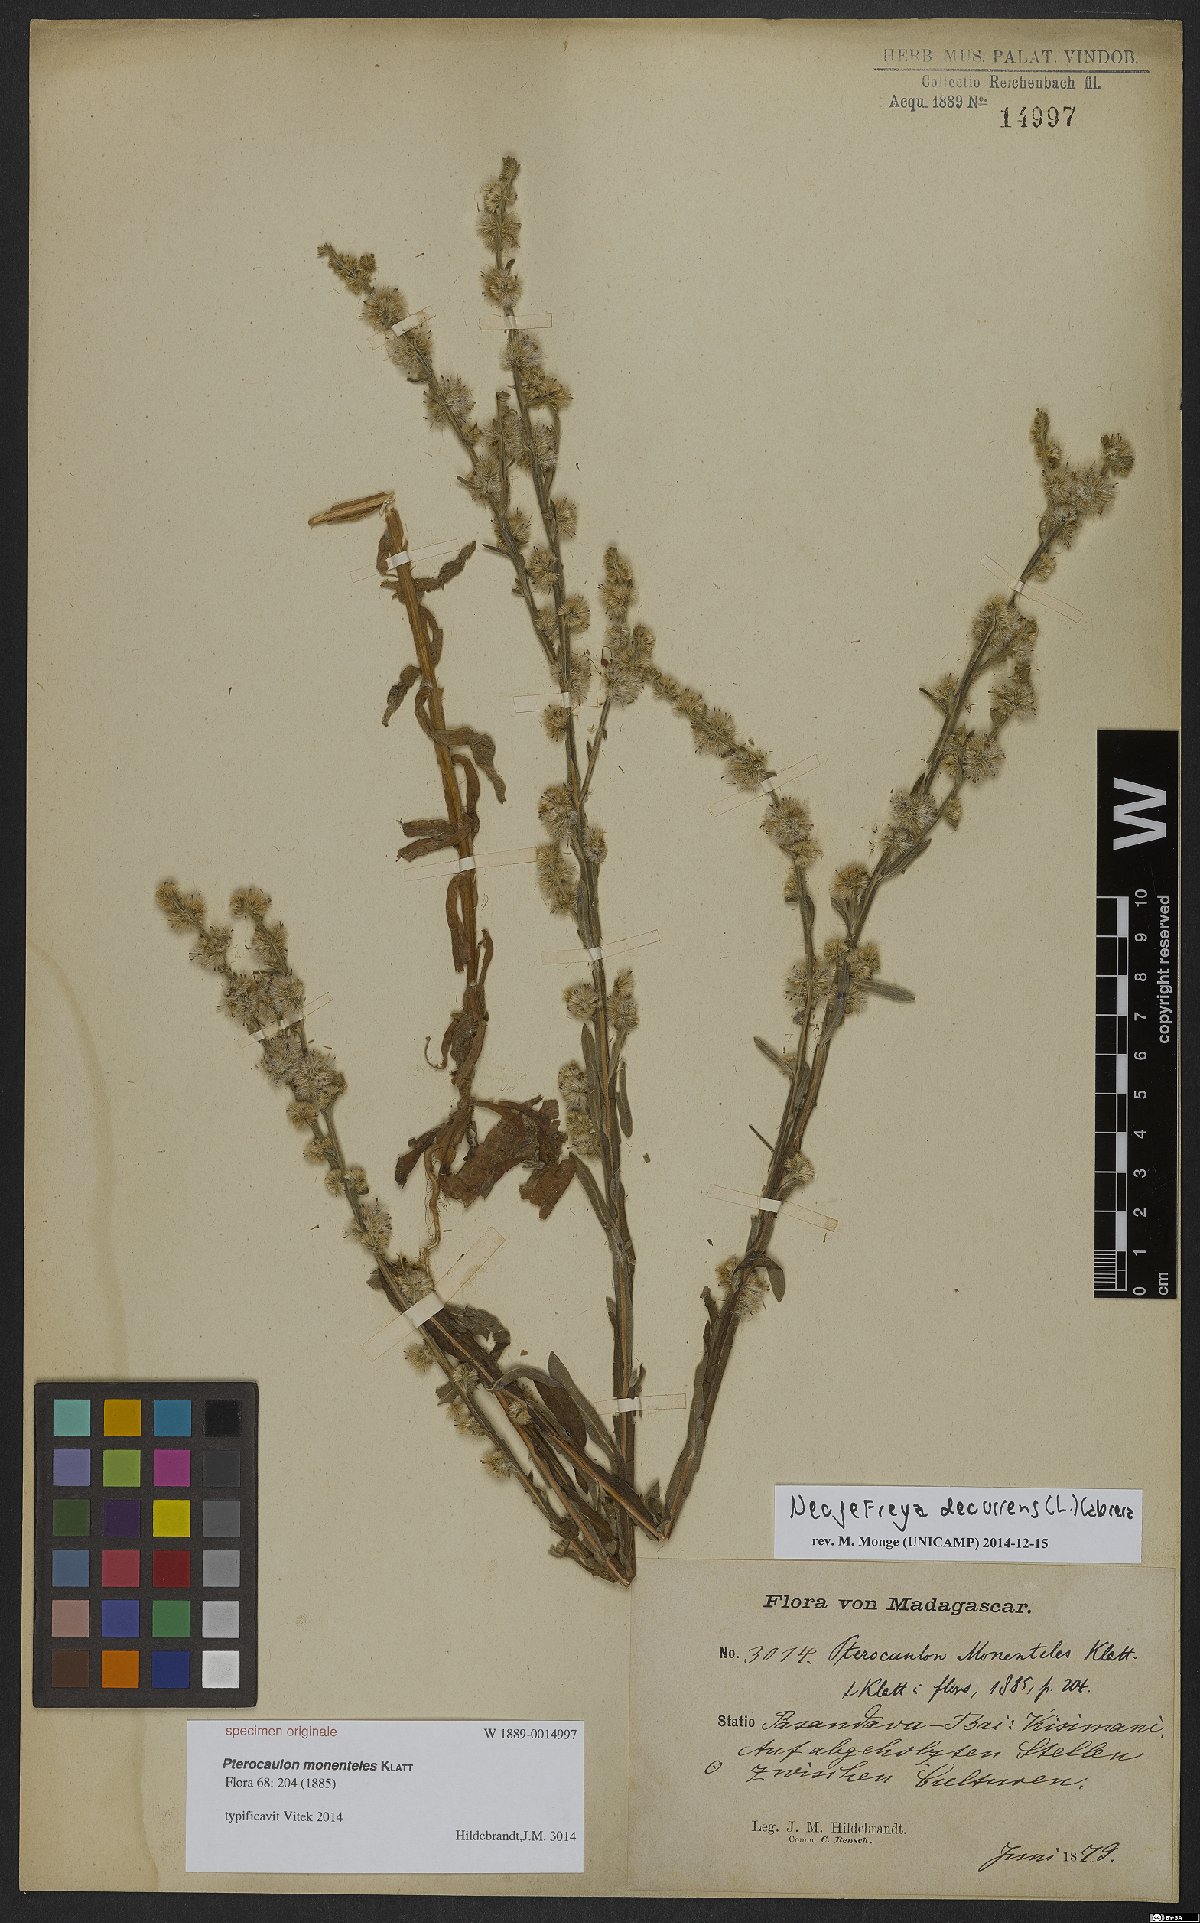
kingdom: Plantae
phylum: Tracheophyta
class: Magnoliopsida
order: Asterales
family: Asteraceae
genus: Neojeffreya
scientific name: Neojeffreya decurrens
